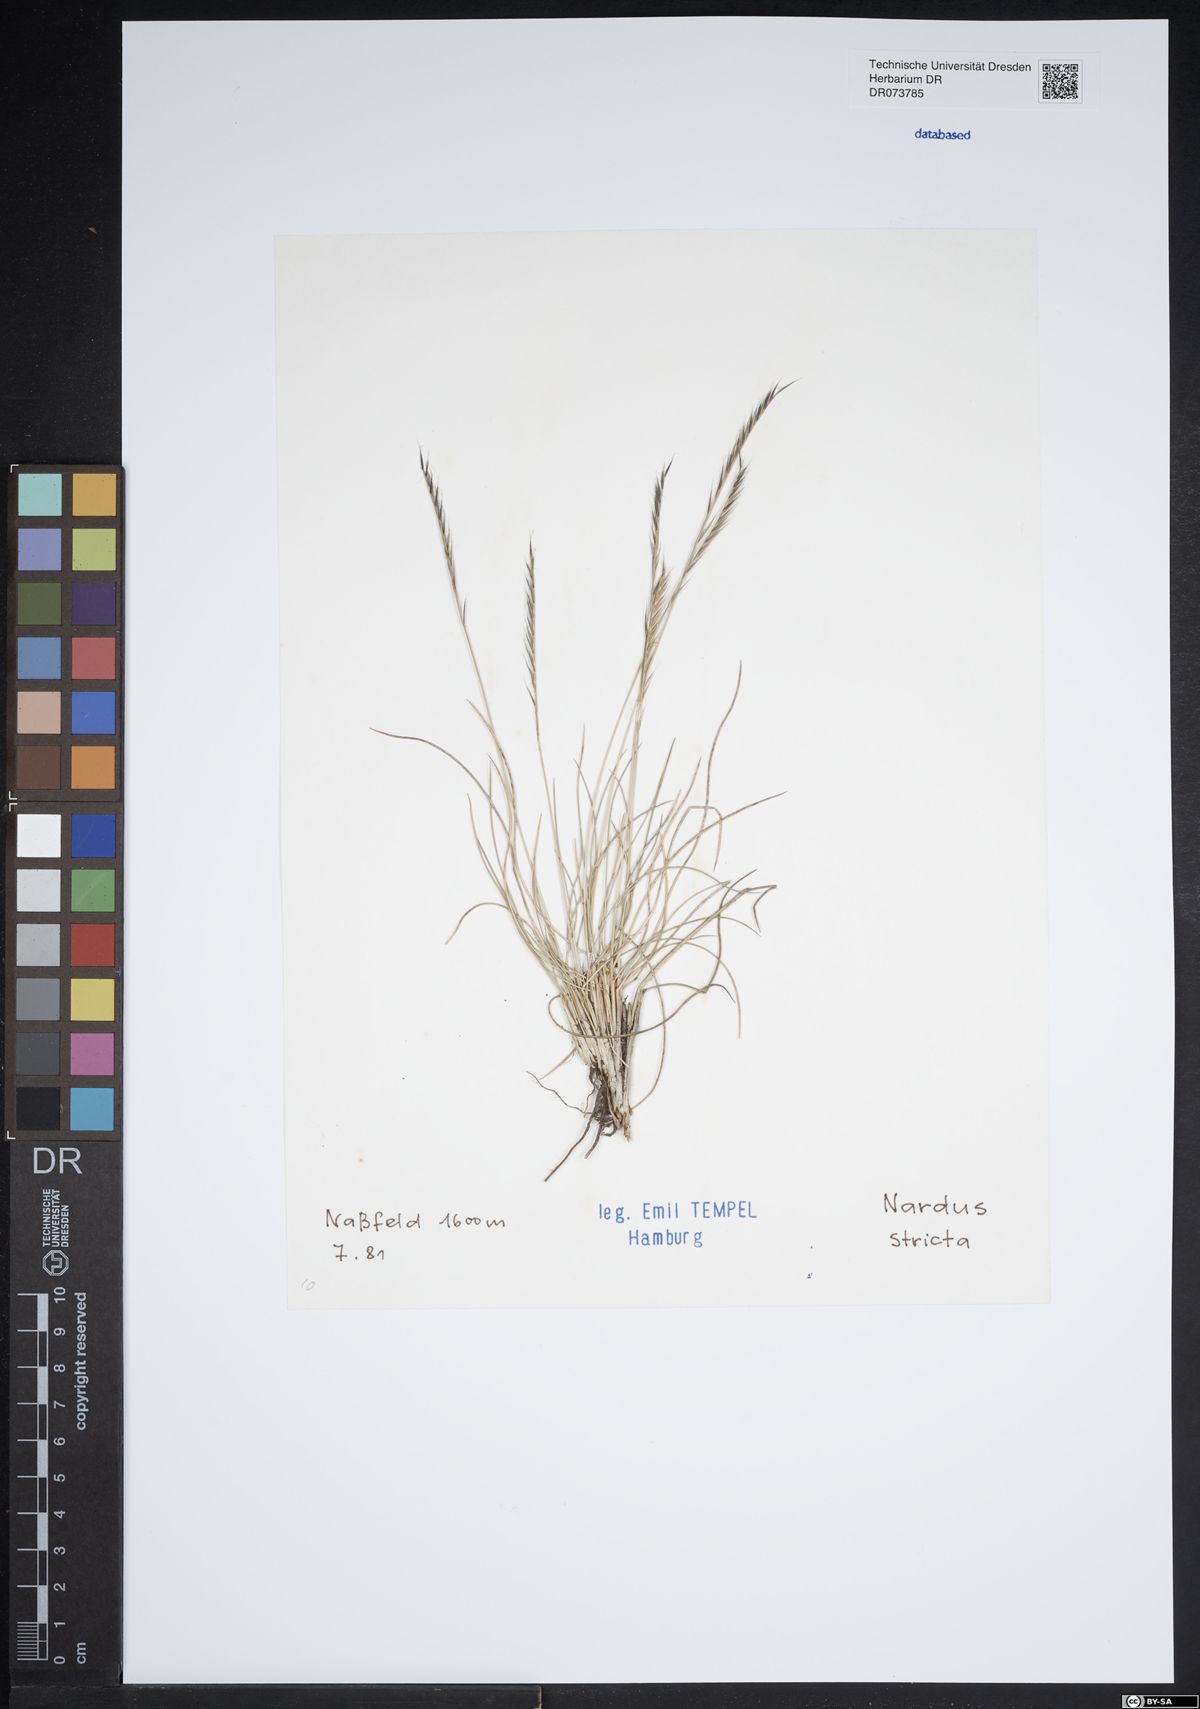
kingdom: Plantae
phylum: Tracheophyta
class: Liliopsida
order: Poales
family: Poaceae
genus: Nardus
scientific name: Nardus stricta
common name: Mat-grass
